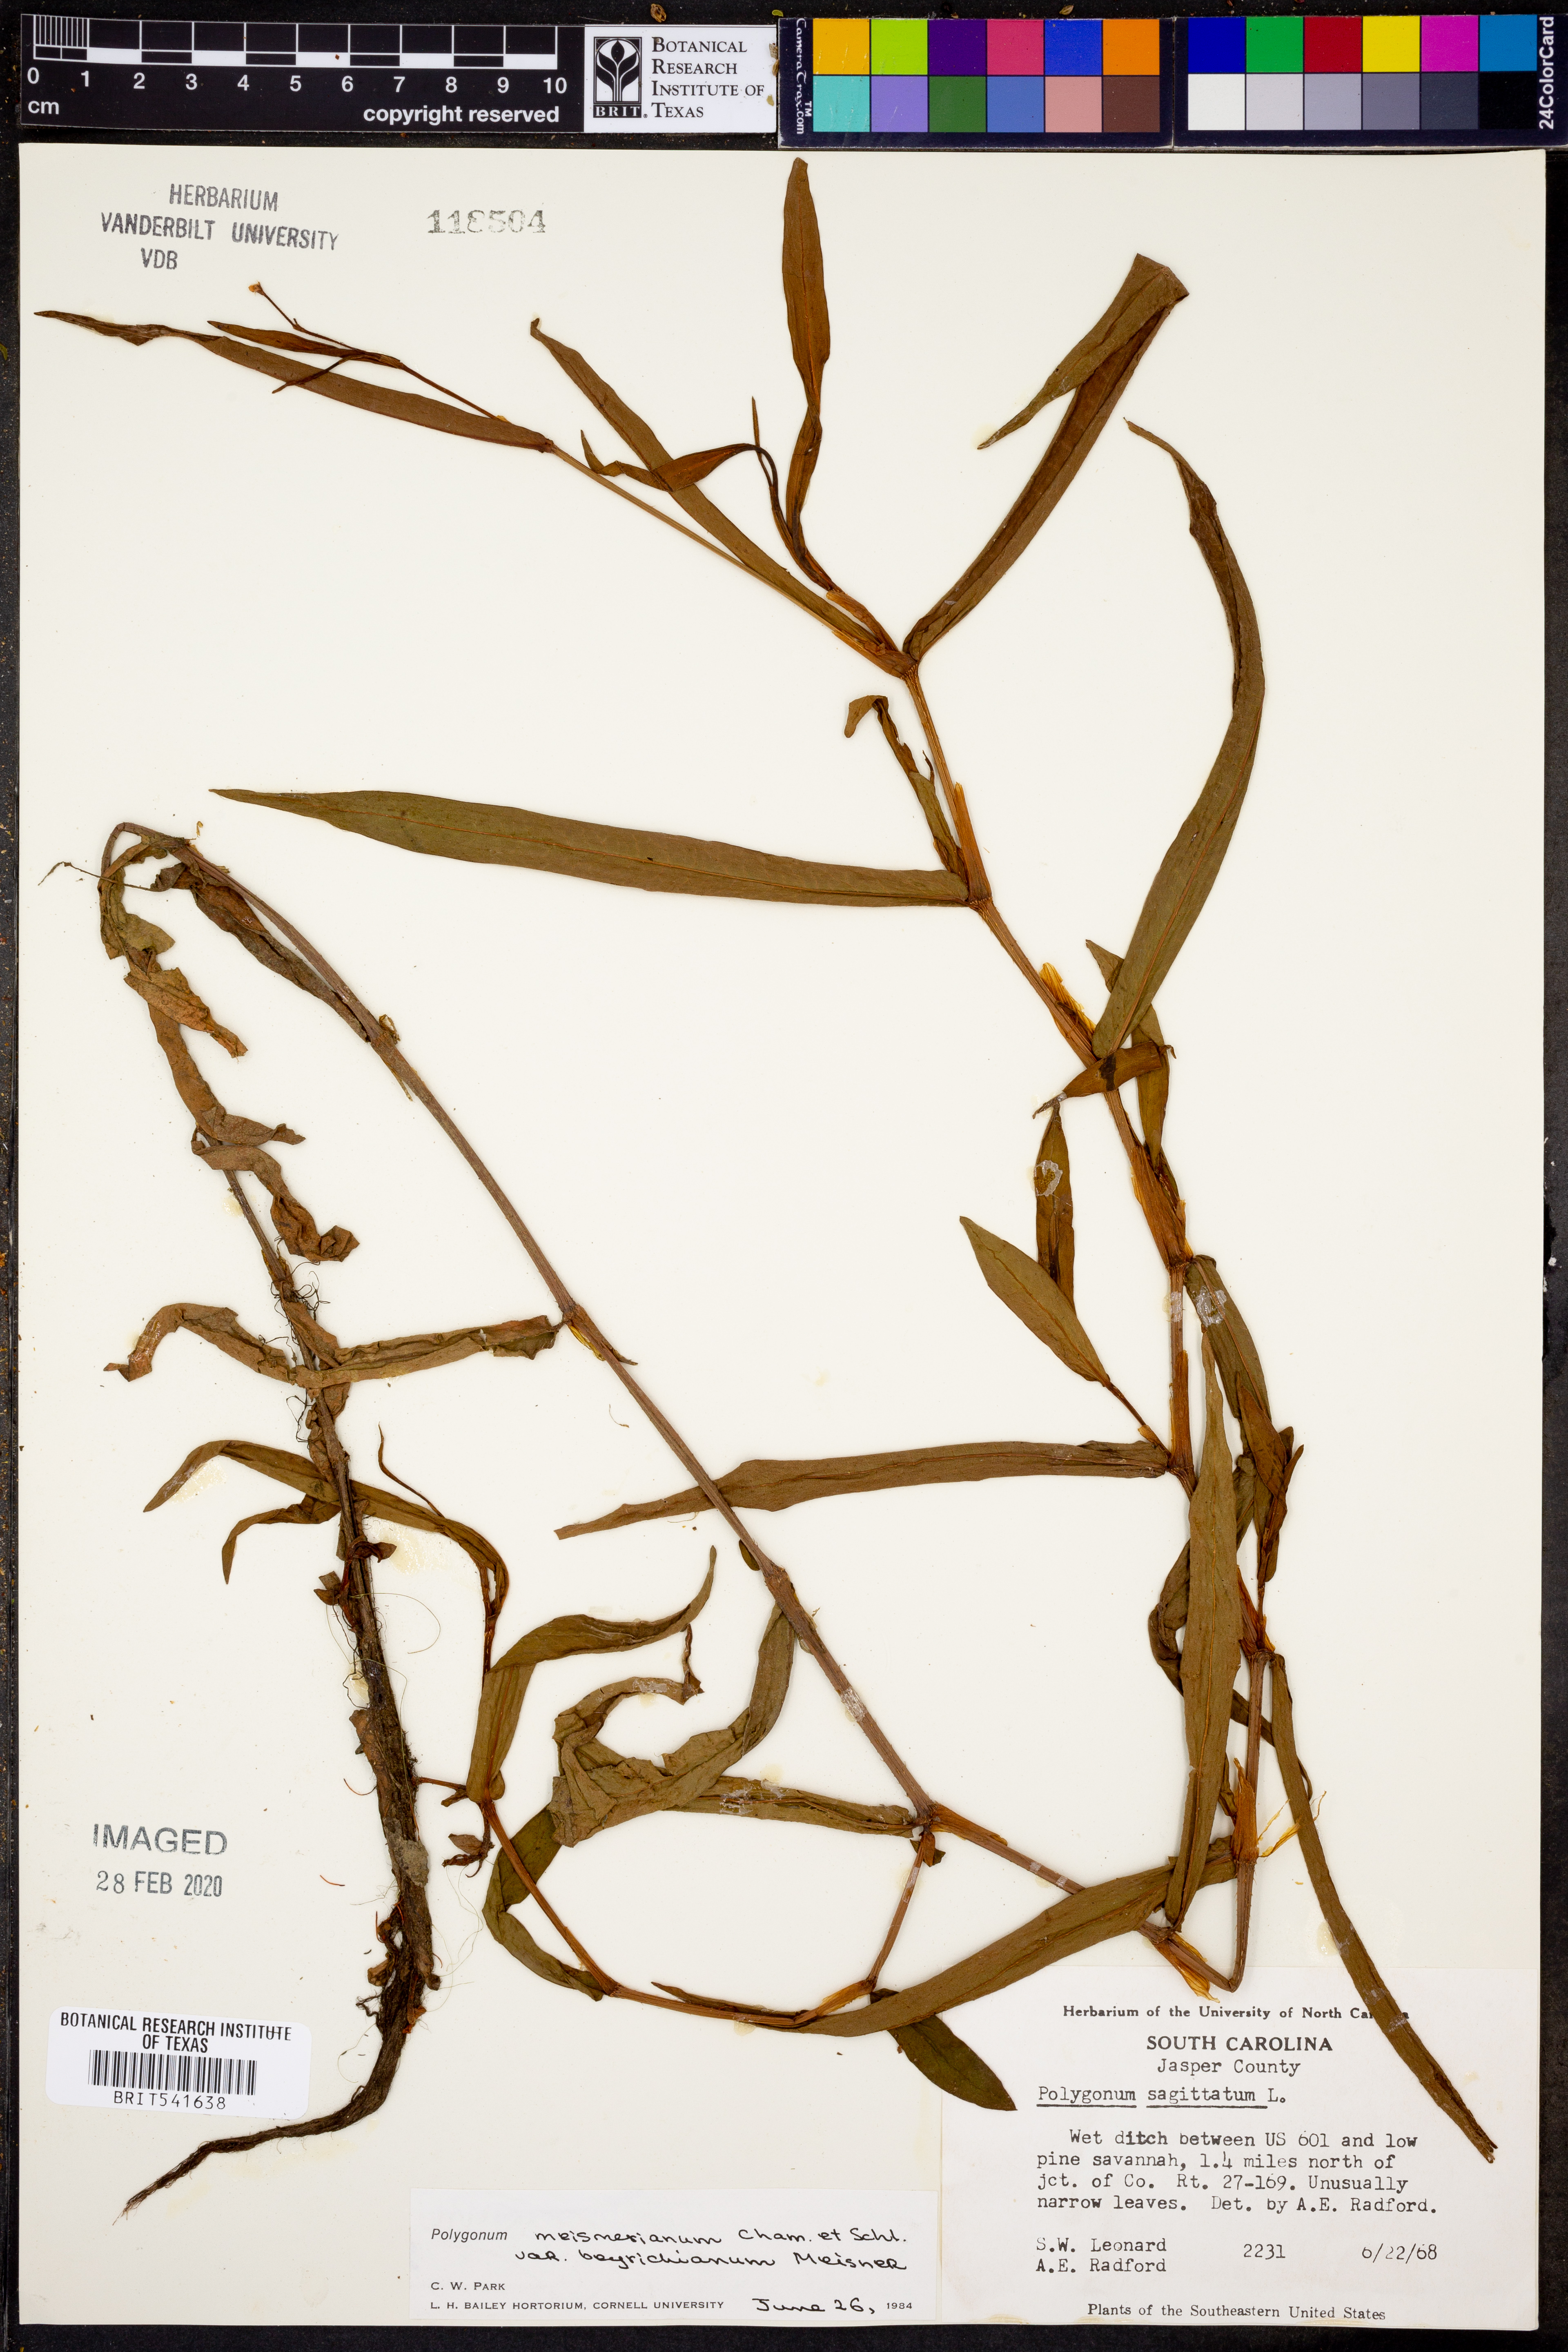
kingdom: Plantae
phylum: Tracheophyta
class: Magnoliopsida
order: Caryophyllales
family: Polygonaceae
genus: Persicaria
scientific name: Persicaria meisneriana
